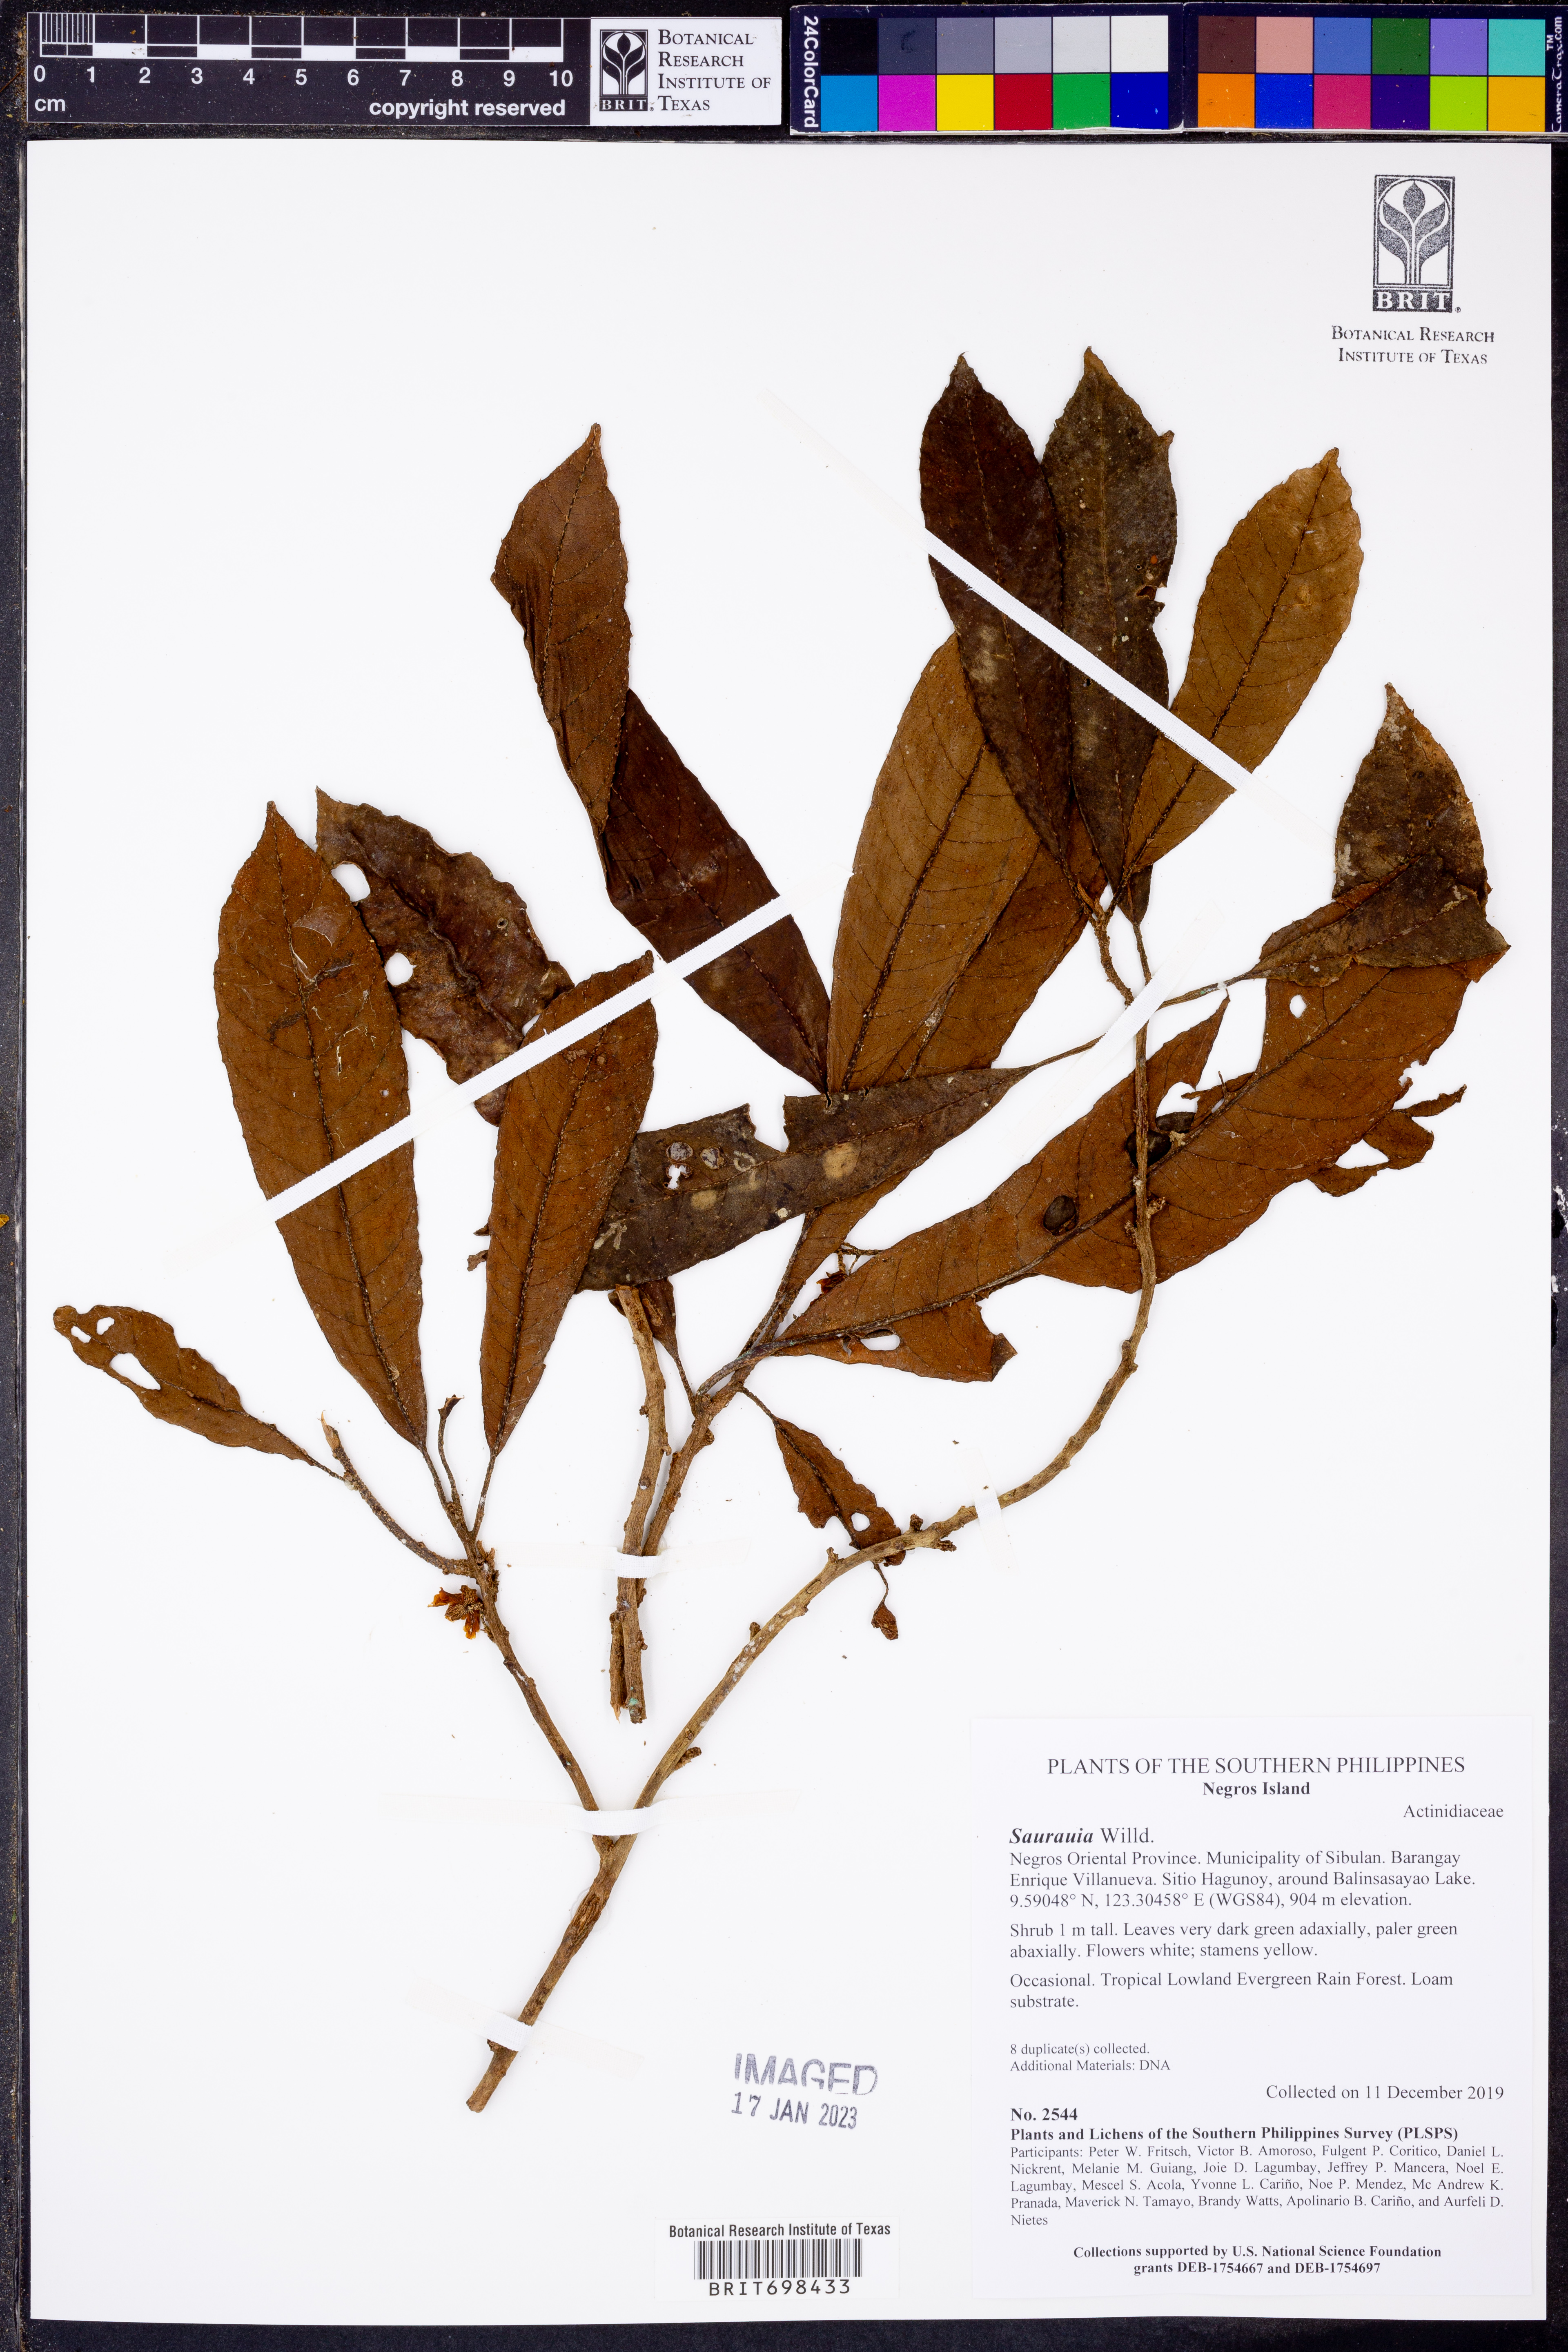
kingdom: Plantae
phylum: Tracheophyta
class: Magnoliopsida
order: Ericales
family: Actinidiaceae
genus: Saurauia
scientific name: Saurauia
